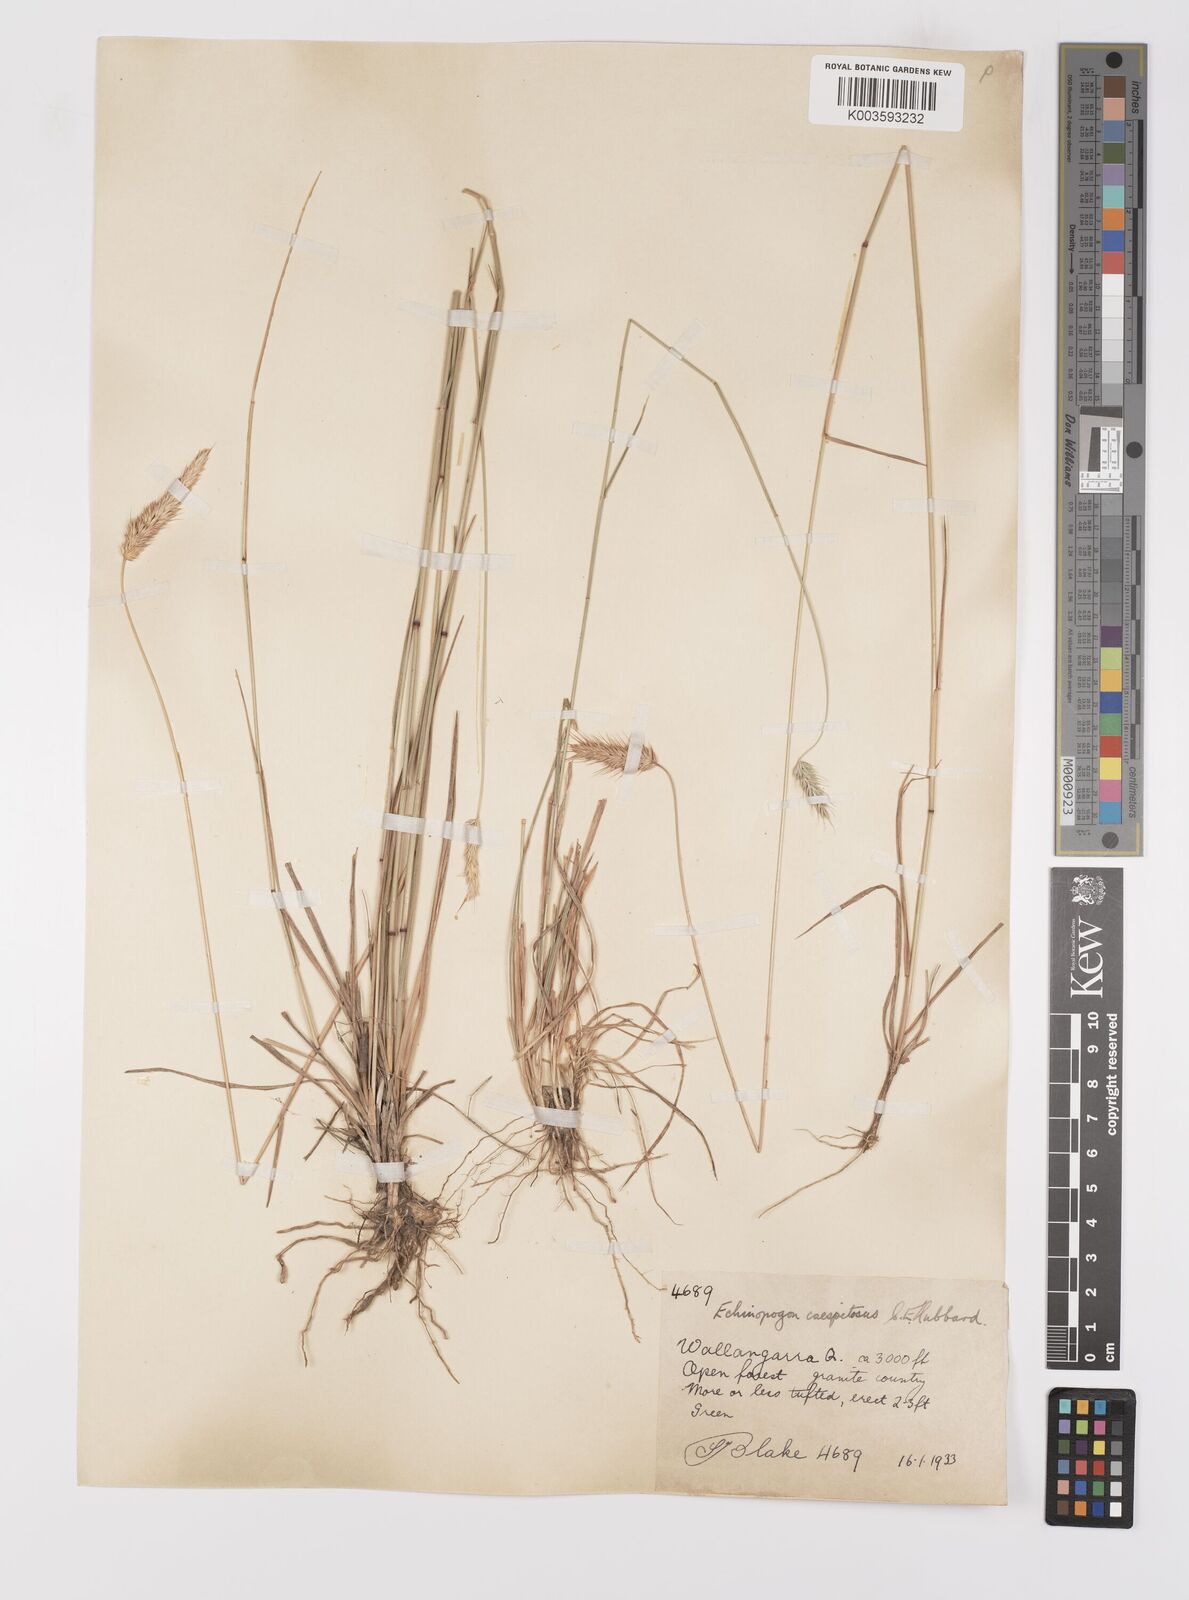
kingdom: Plantae
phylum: Tracheophyta
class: Liliopsida
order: Poales
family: Poaceae
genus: Echinopogon
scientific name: Echinopogon caespitosus
